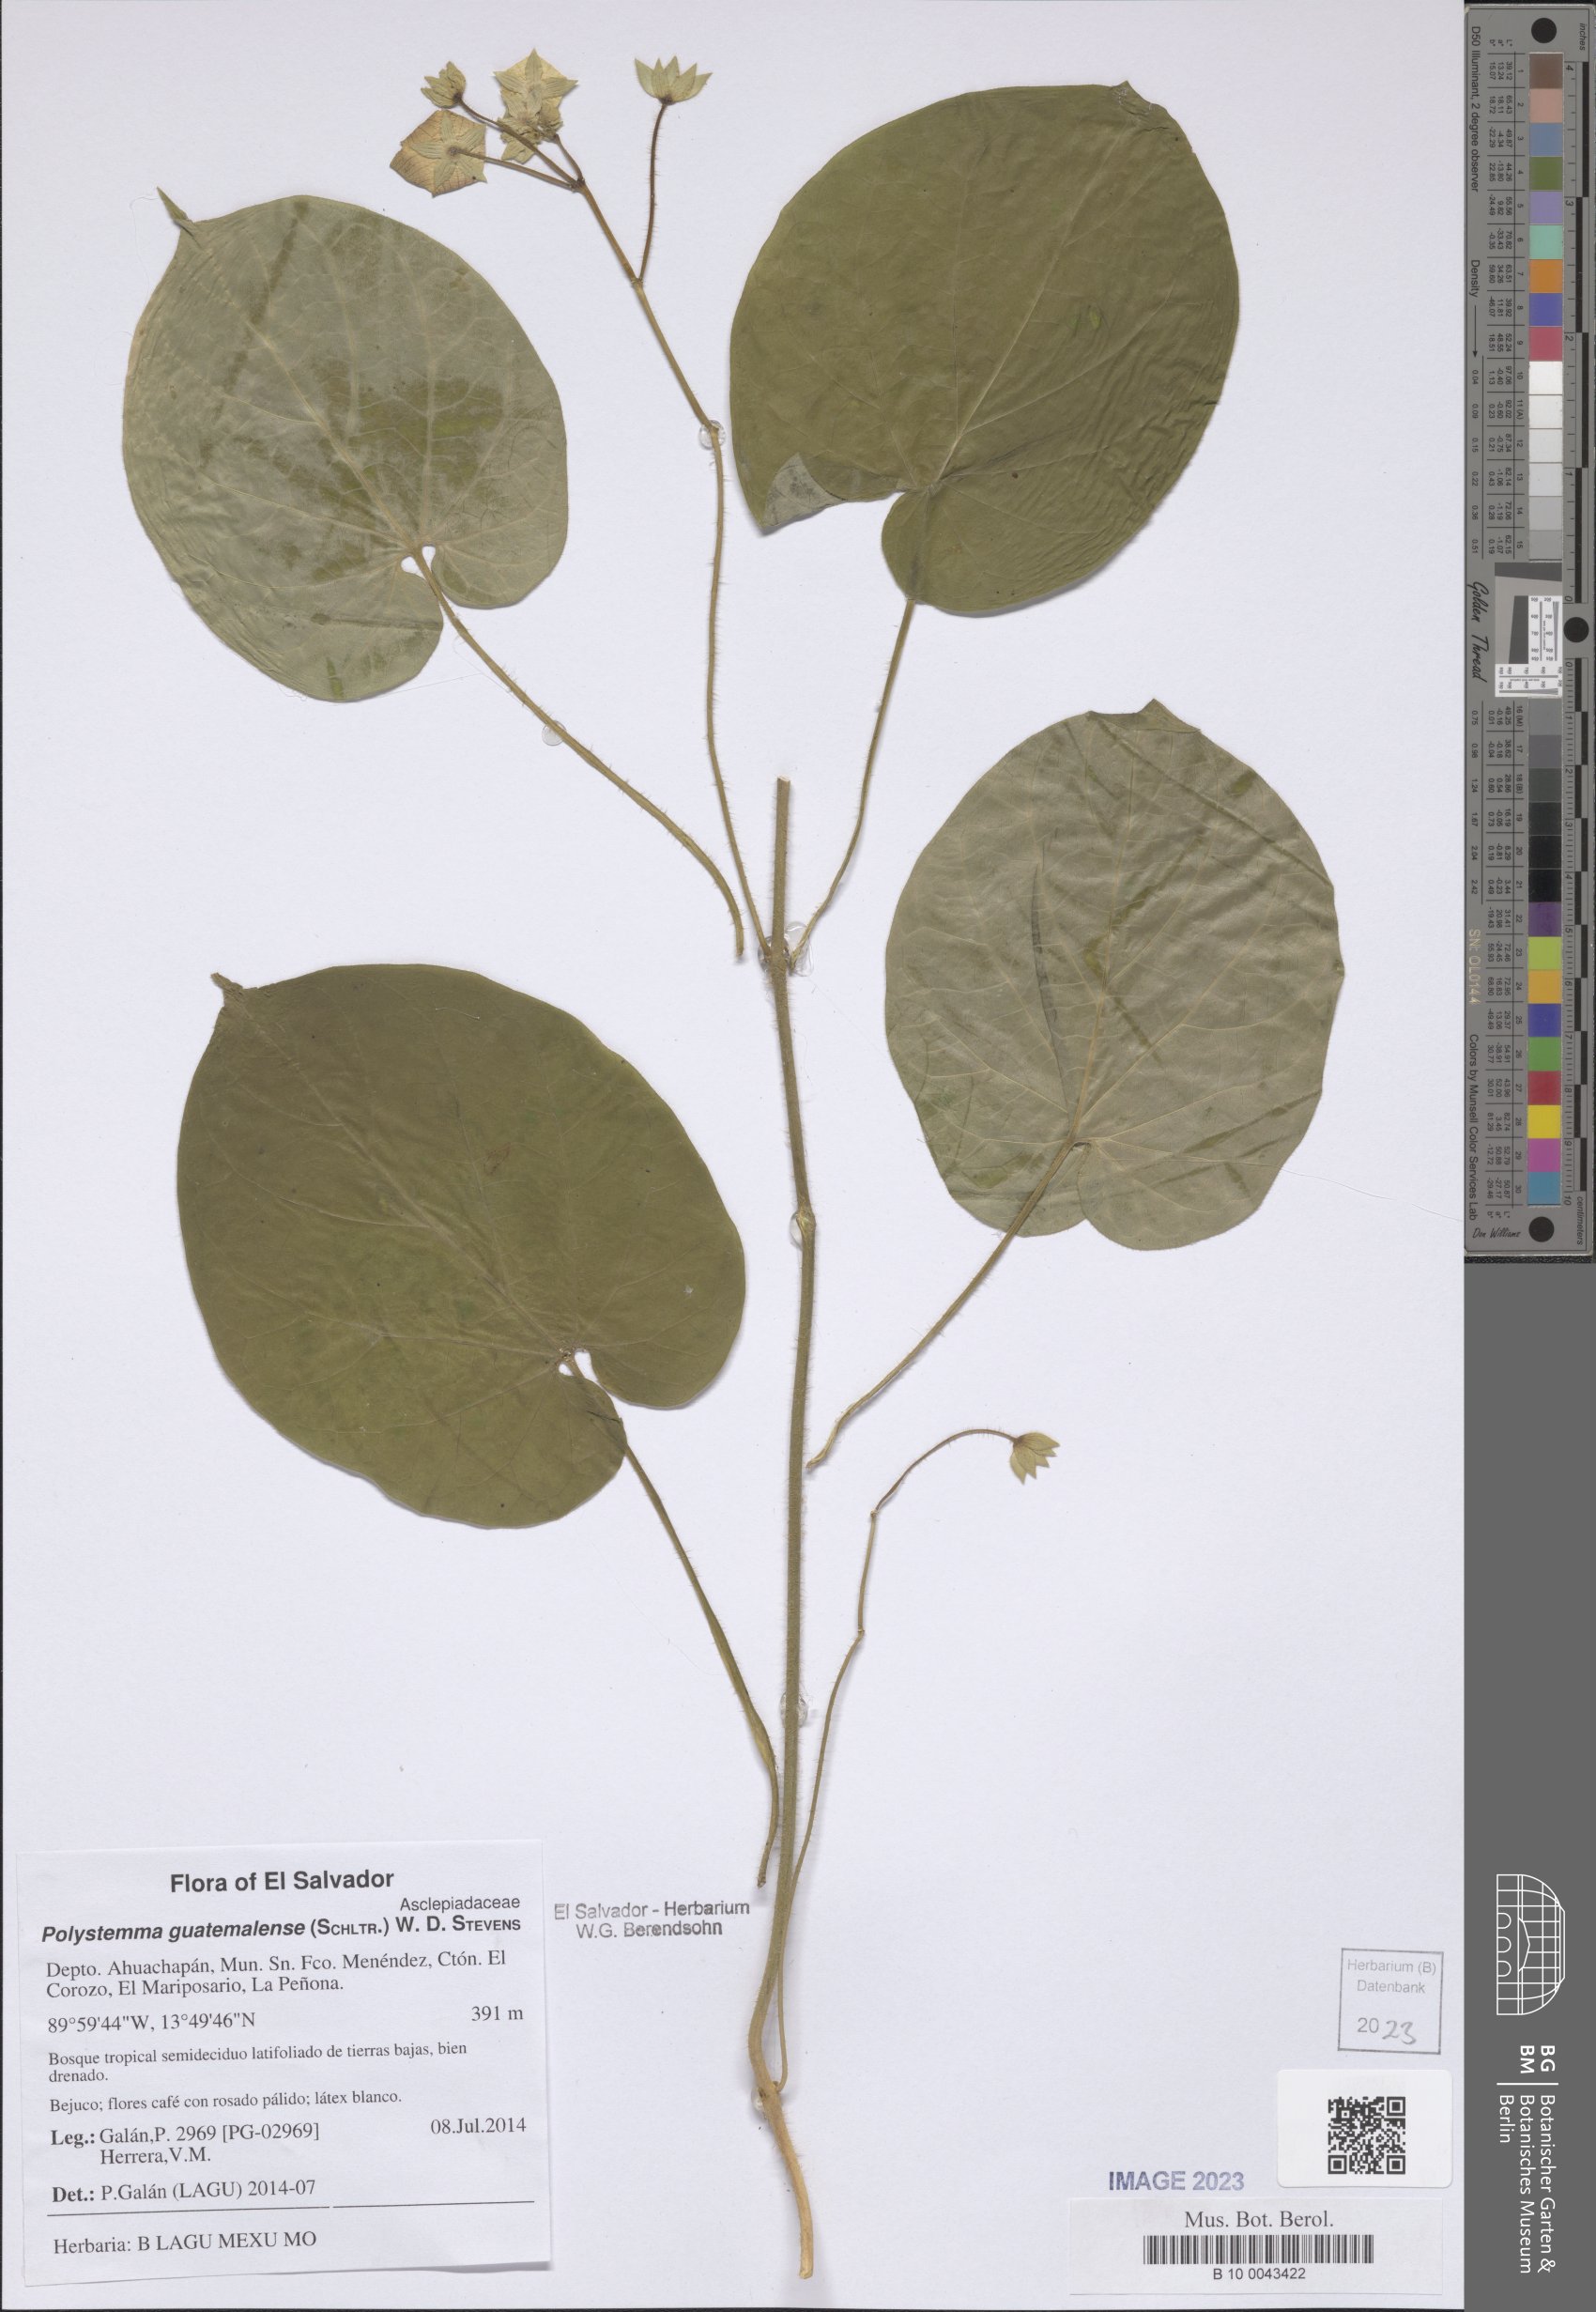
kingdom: Plantae
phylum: Tracheophyta
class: Magnoliopsida
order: Gentianales
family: Apocynaceae
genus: Polystemma
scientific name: Polystemma guatemalense
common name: Arborescente rattan
